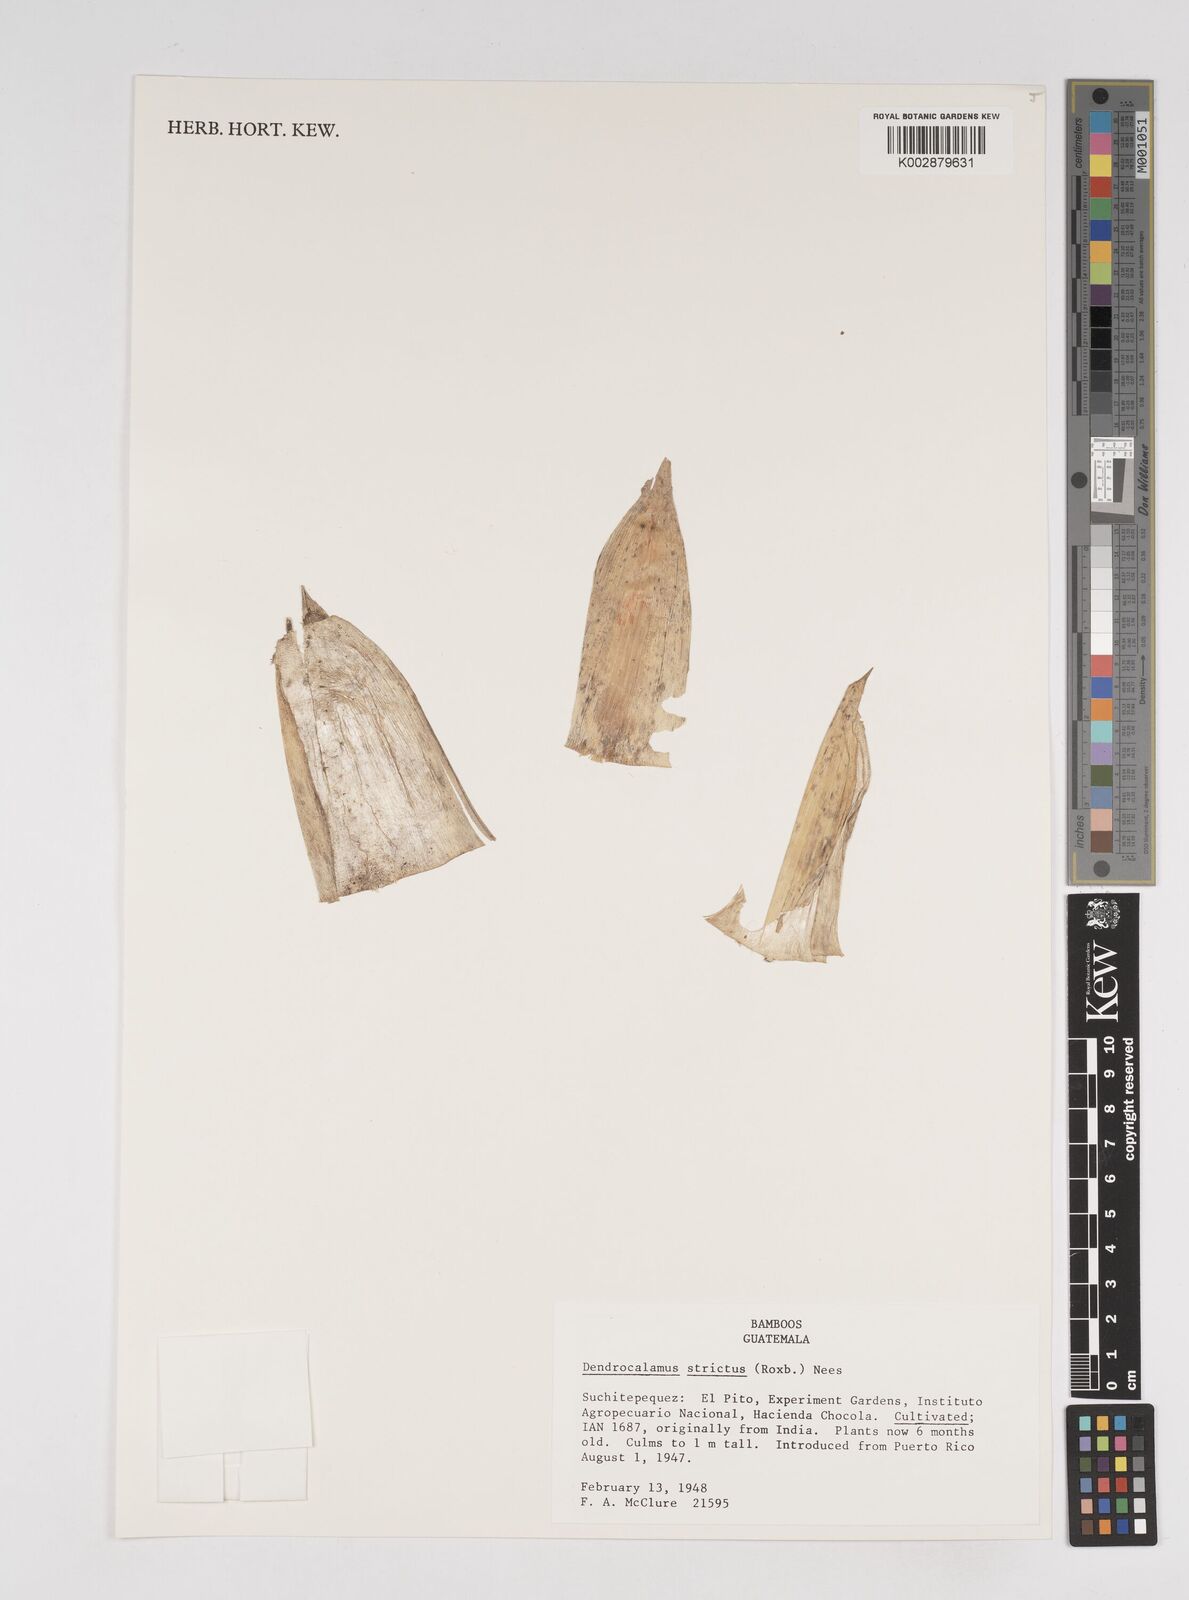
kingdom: Plantae
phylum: Tracheophyta
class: Liliopsida
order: Poales
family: Poaceae
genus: Dendrocalamus
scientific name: Dendrocalamus strictus
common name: Male bamboo
